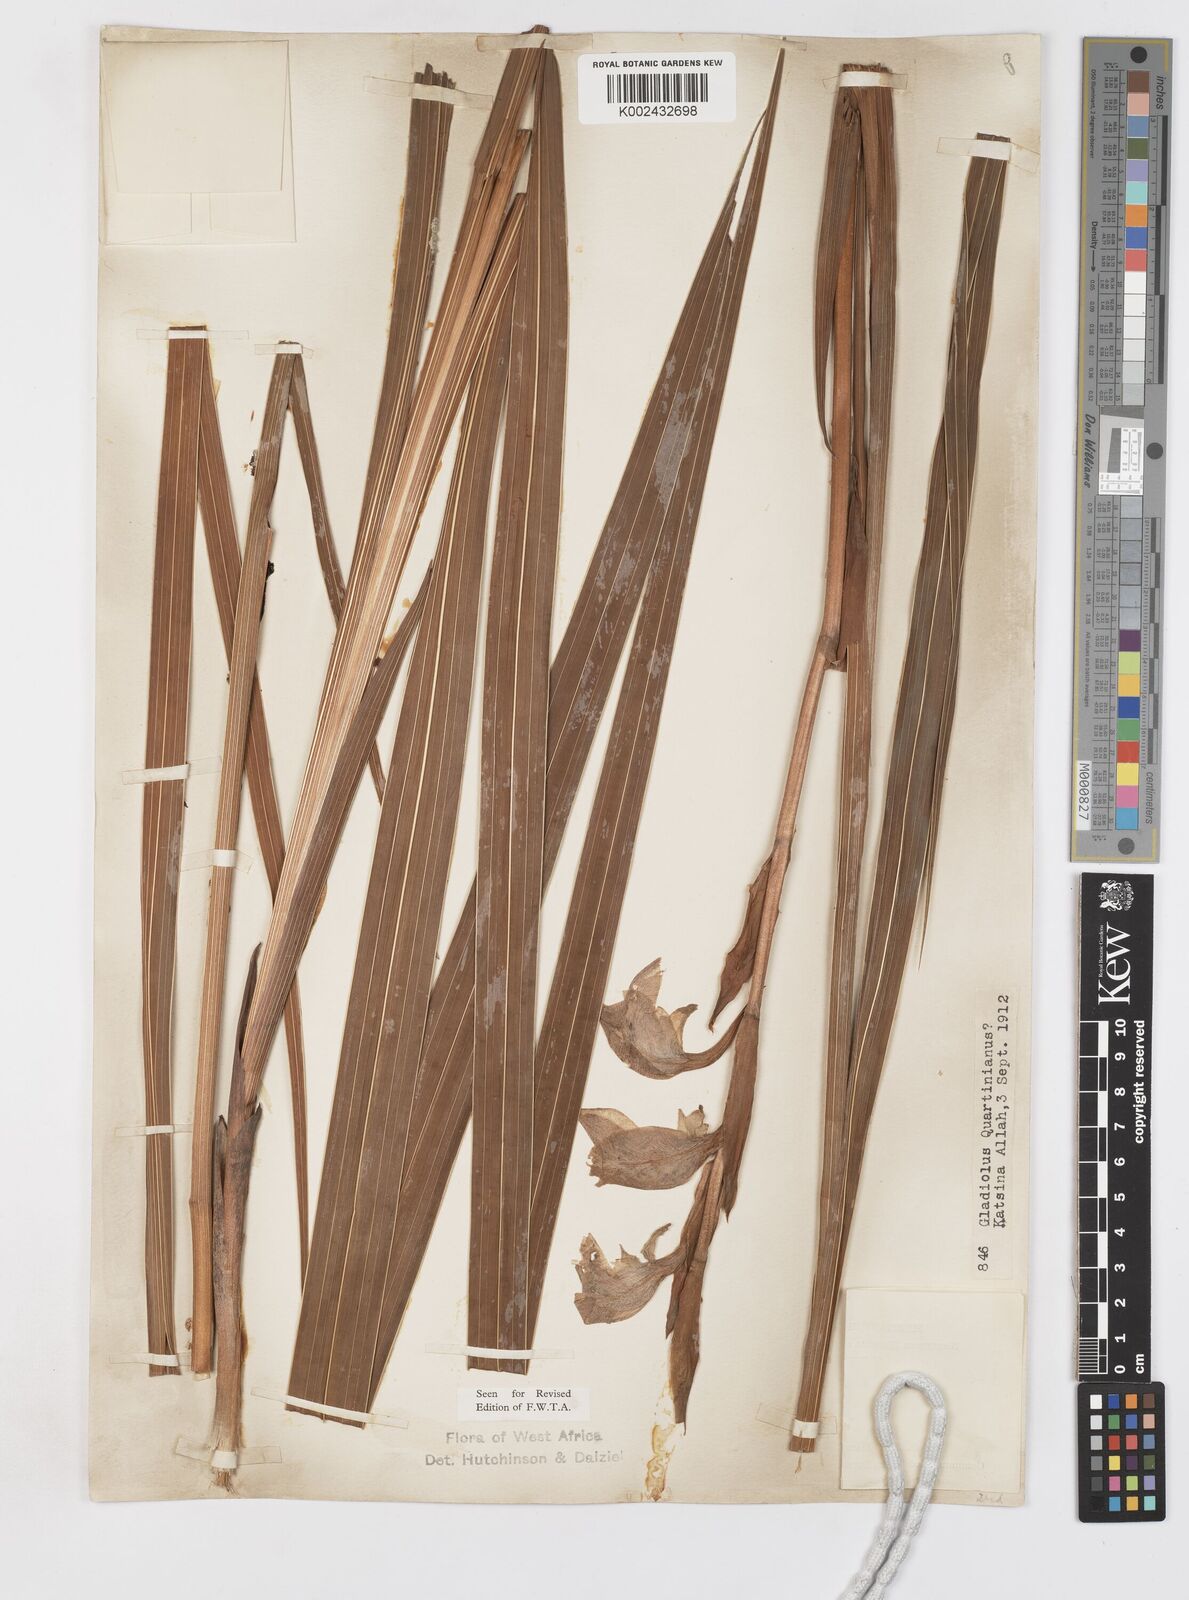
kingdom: Plantae
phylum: Tracheophyta
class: Liliopsida
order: Asparagales
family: Iridaceae
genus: Gladiolus
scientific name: Gladiolus dalenii
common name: Cornflag
